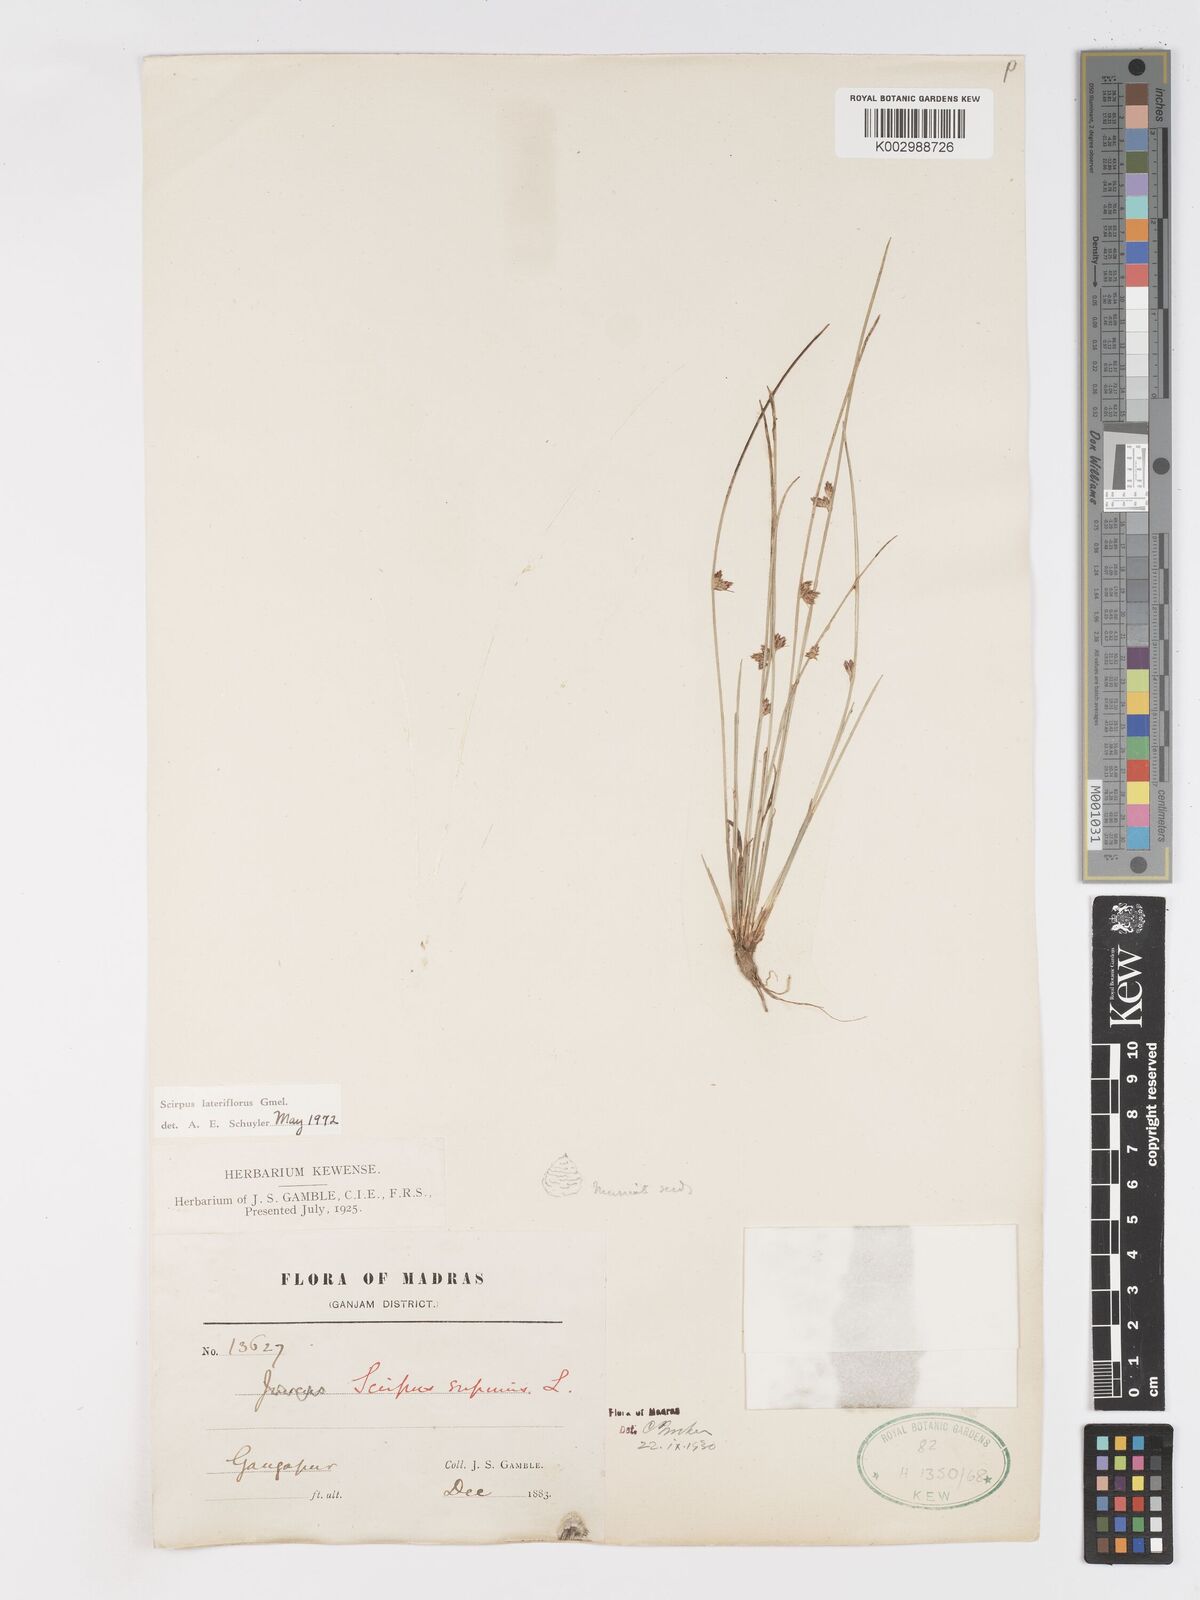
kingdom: Plantae
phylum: Tracheophyta
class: Liliopsida
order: Poales
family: Cyperaceae
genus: Schoenoplectiella
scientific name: Schoenoplectiella lateriflora
